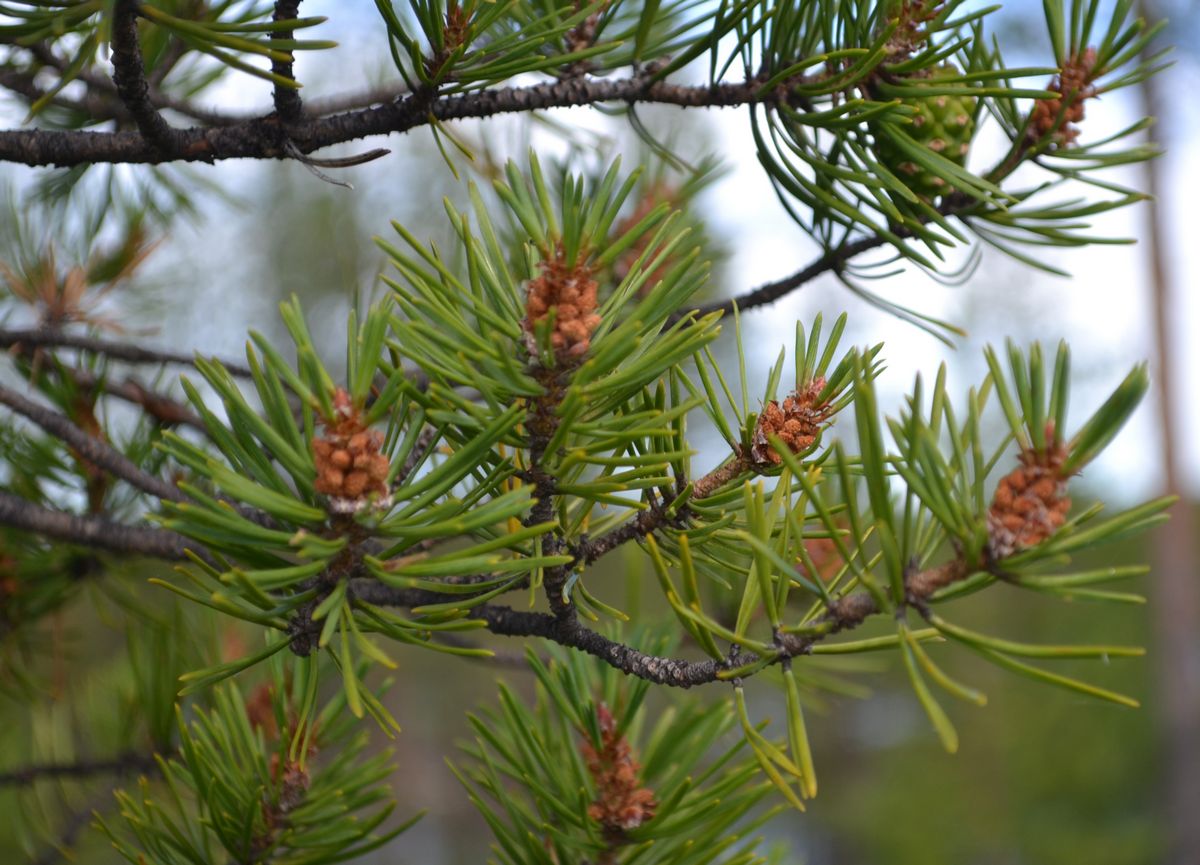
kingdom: Plantae
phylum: Tracheophyta
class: Pinopsida
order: Pinales
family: Pinaceae
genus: Pinus
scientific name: Pinus sylvestris
